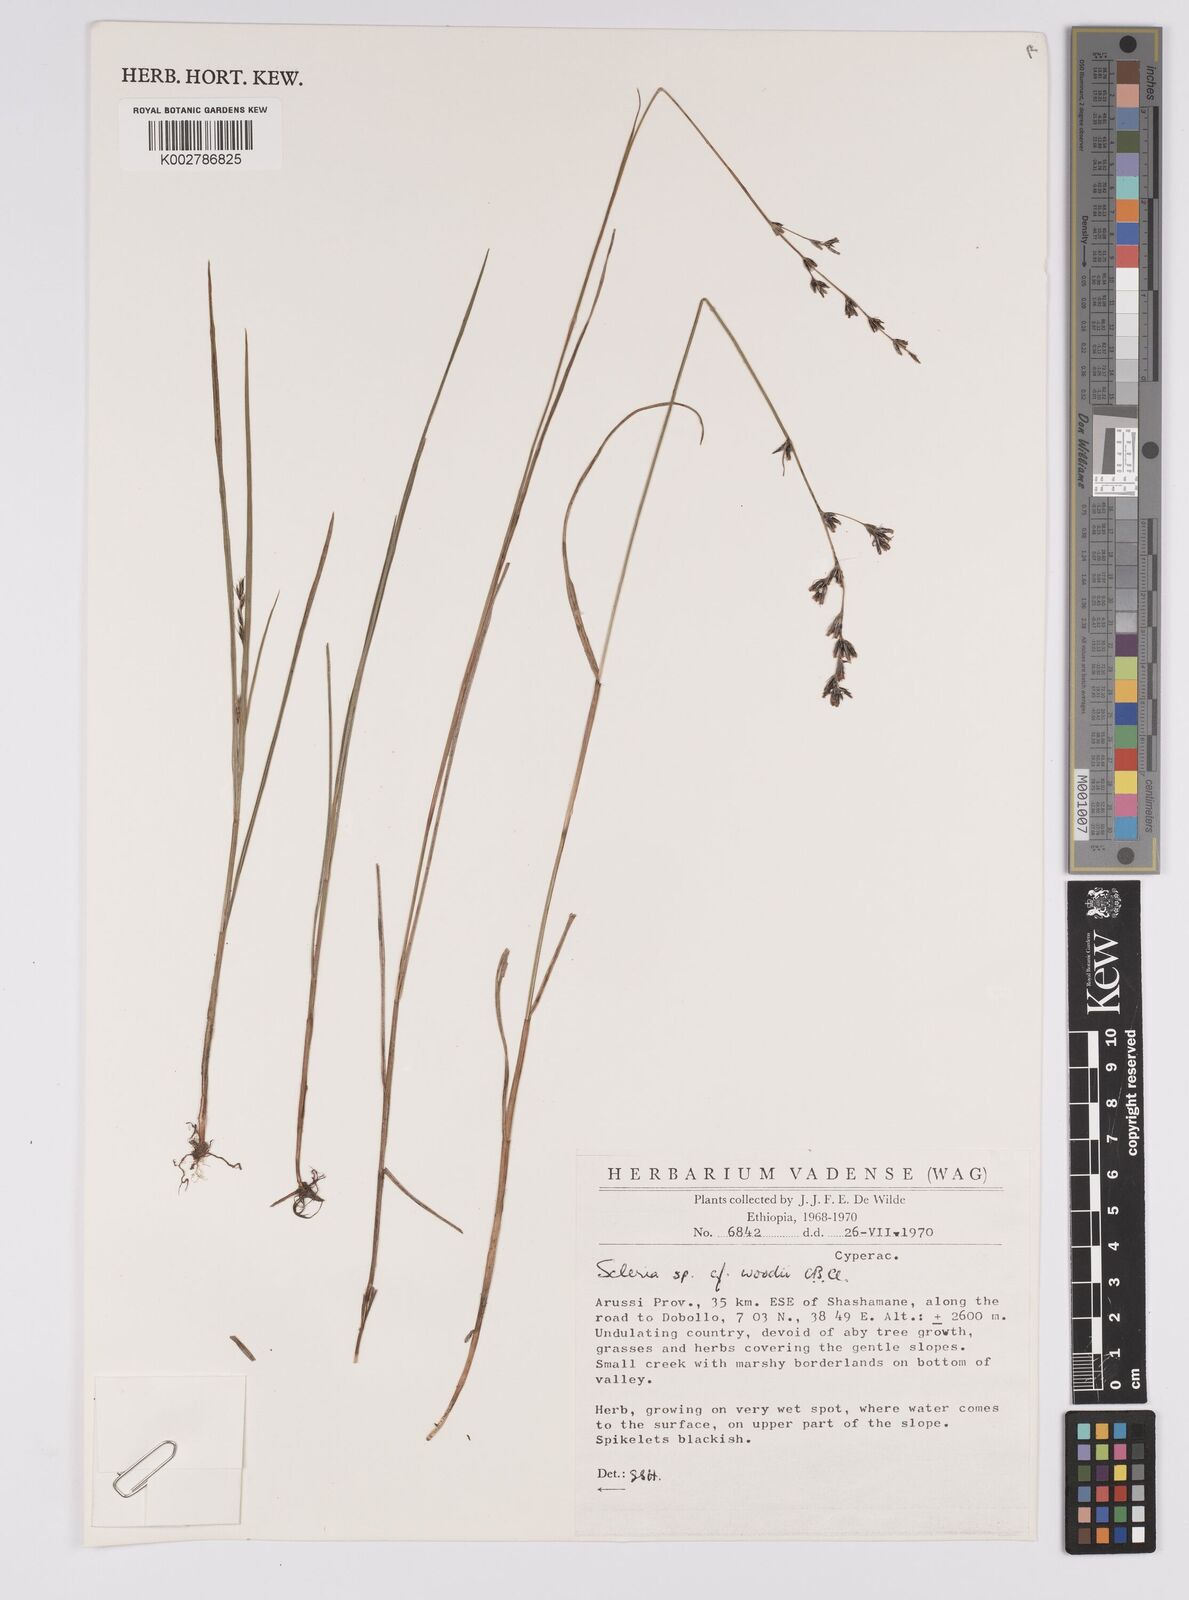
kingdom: Plantae
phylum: Tracheophyta
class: Liliopsida
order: Poales
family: Cyperaceae
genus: Scleria
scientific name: Scleria woodii
